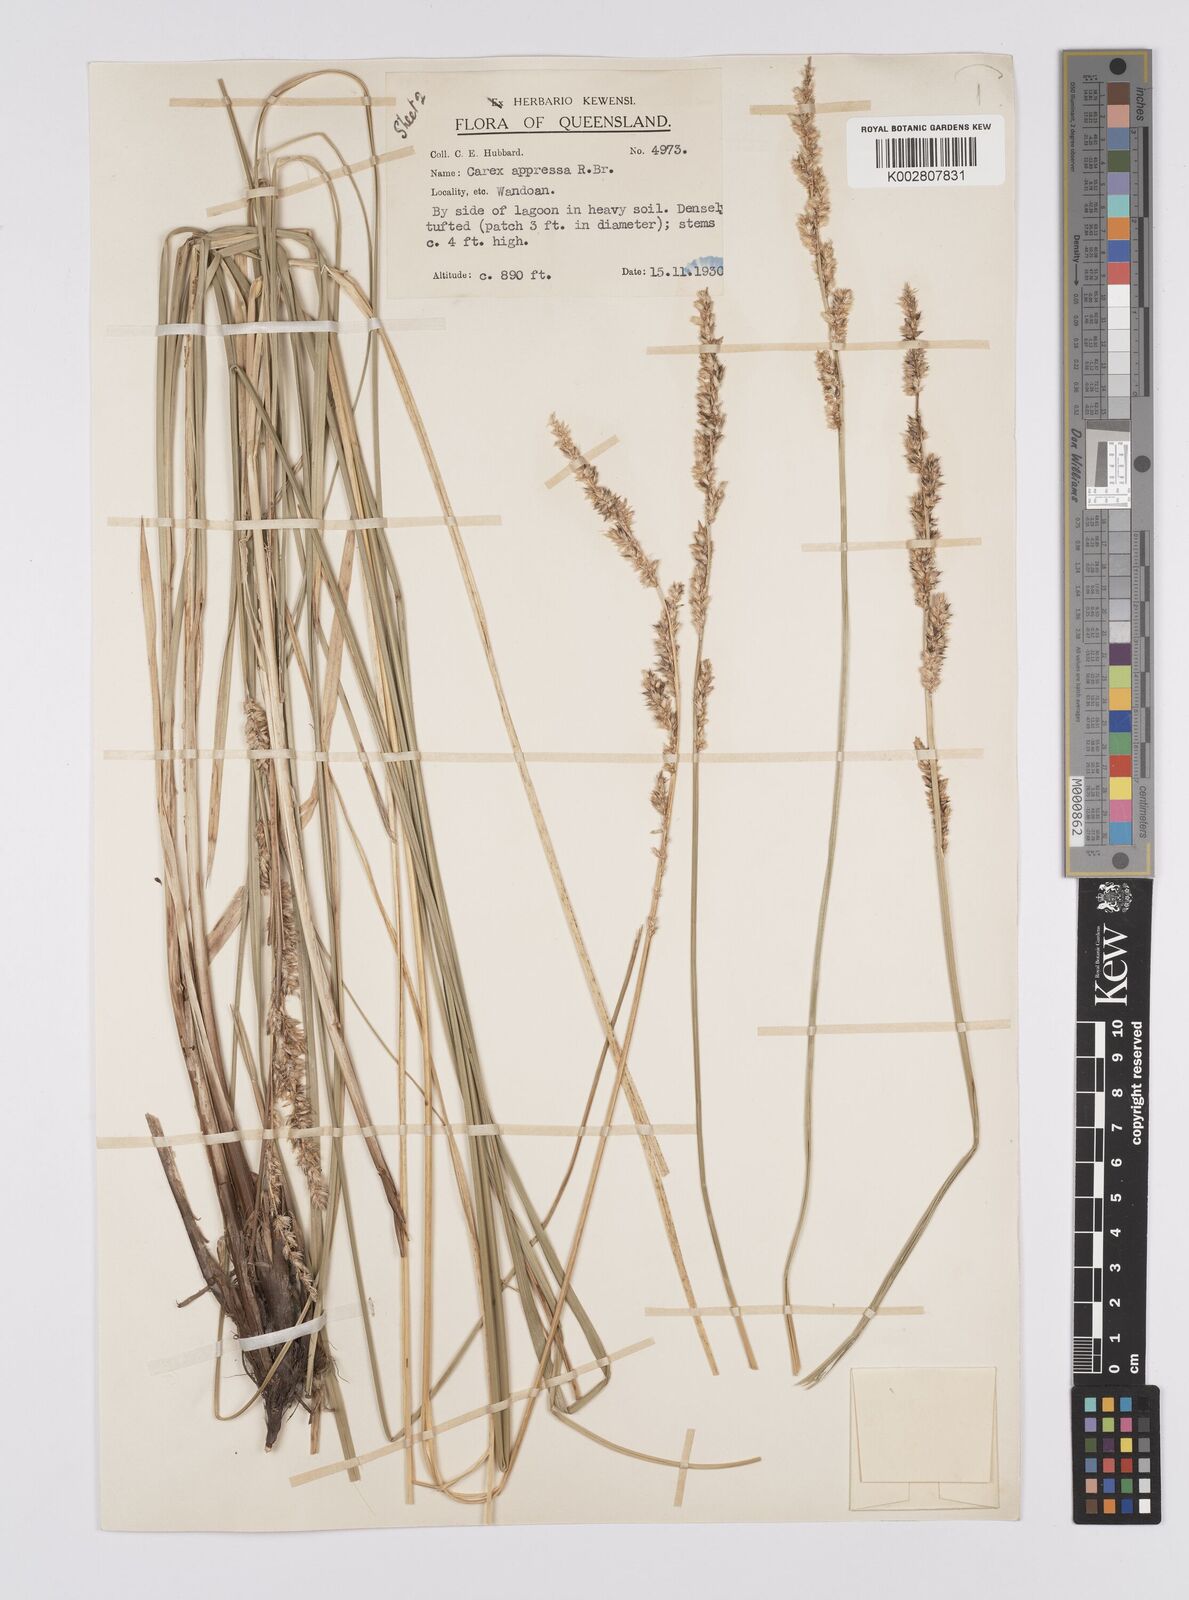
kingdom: Plantae
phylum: Tracheophyta
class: Liliopsida
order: Poales
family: Cyperaceae
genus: Carex
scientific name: Carex appressa
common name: Tussock sedge
